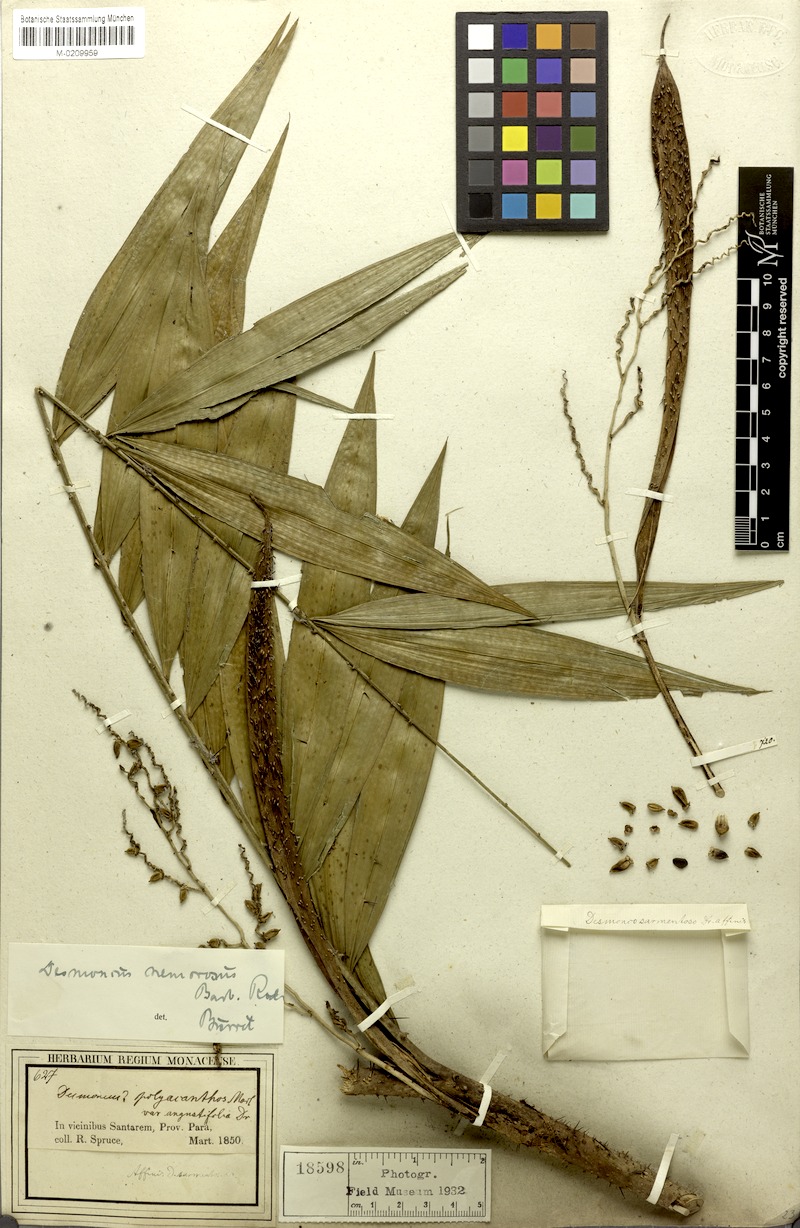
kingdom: Plantae
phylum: Tracheophyta
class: Liliopsida
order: Arecales
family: Arecaceae
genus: Desmoncus
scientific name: Desmoncus polyacanthos
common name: Suriname bramble palm
